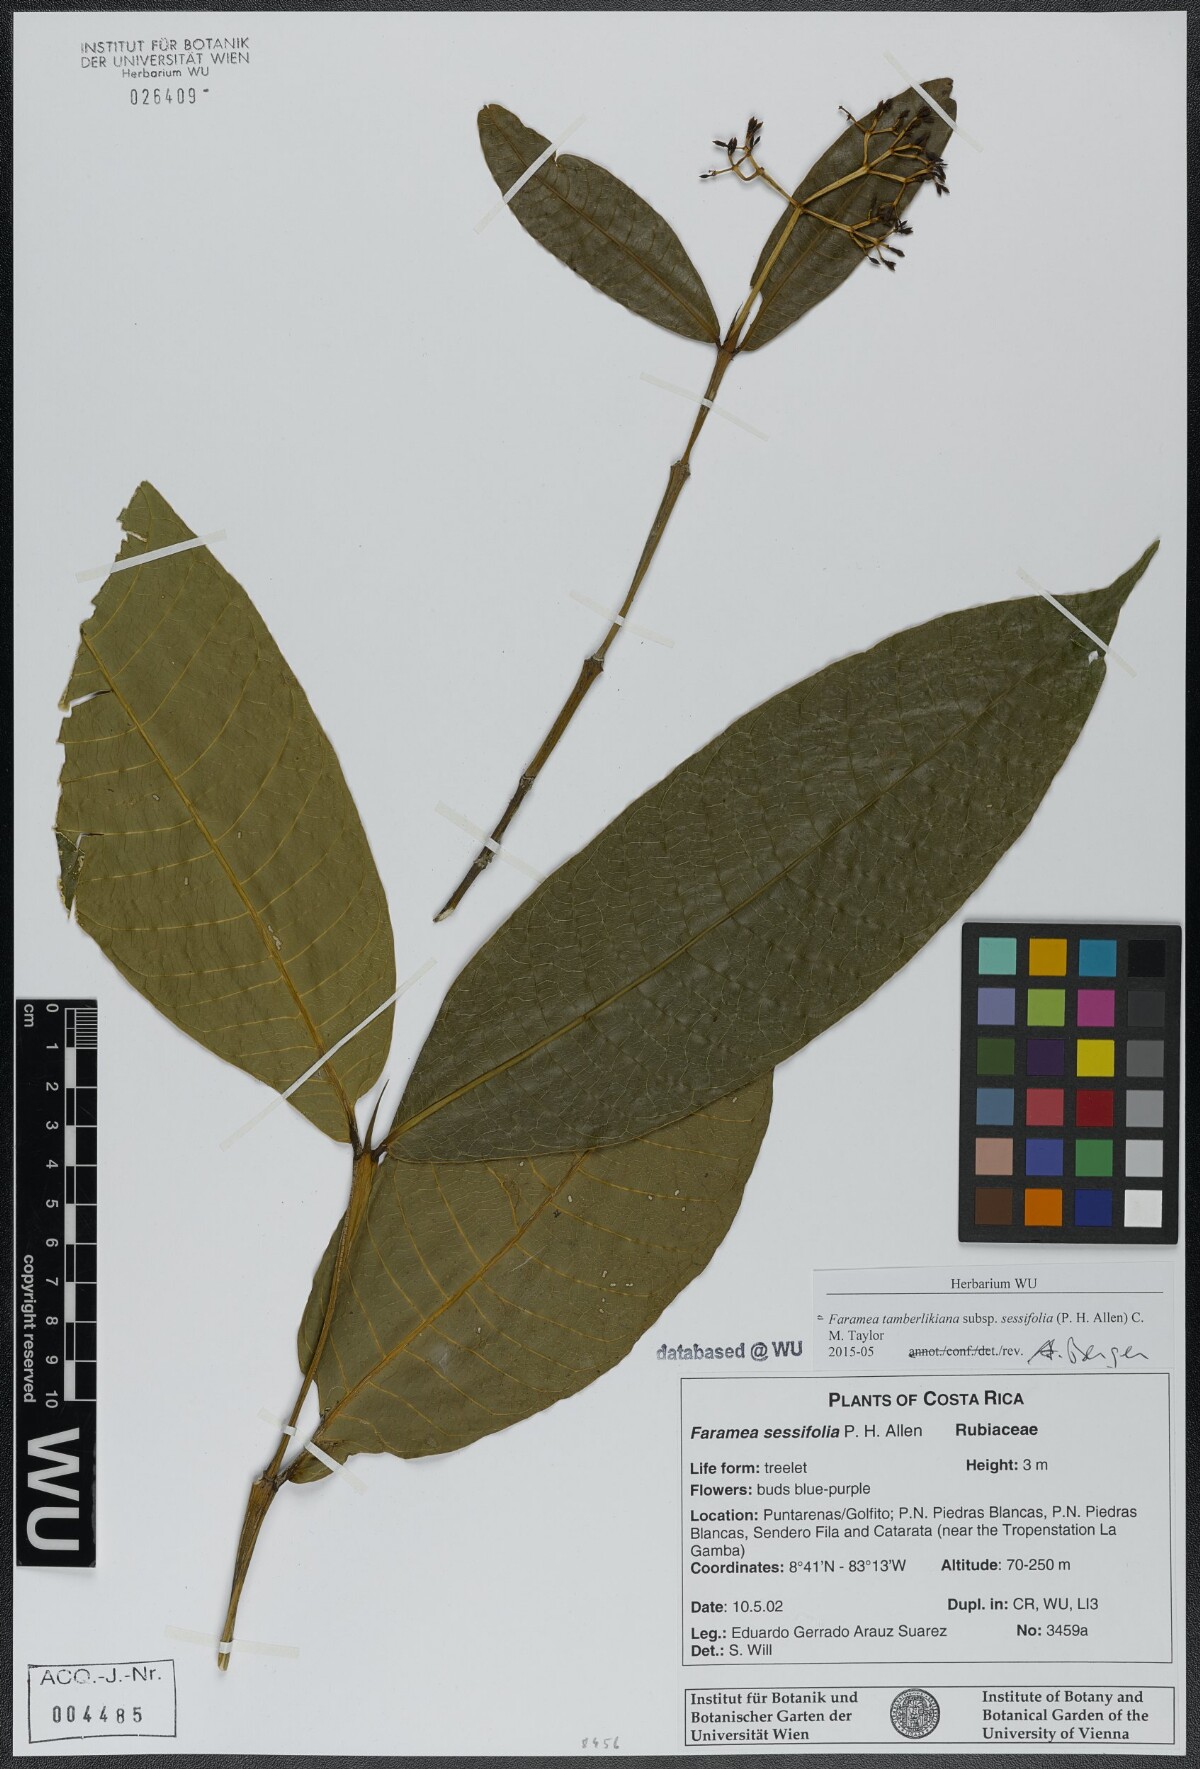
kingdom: Plantae
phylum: Tracheophyta
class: Magnoliopsida
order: Gentianales
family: Rubiaceae
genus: Faramea
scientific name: Faramea tamberlikiana
